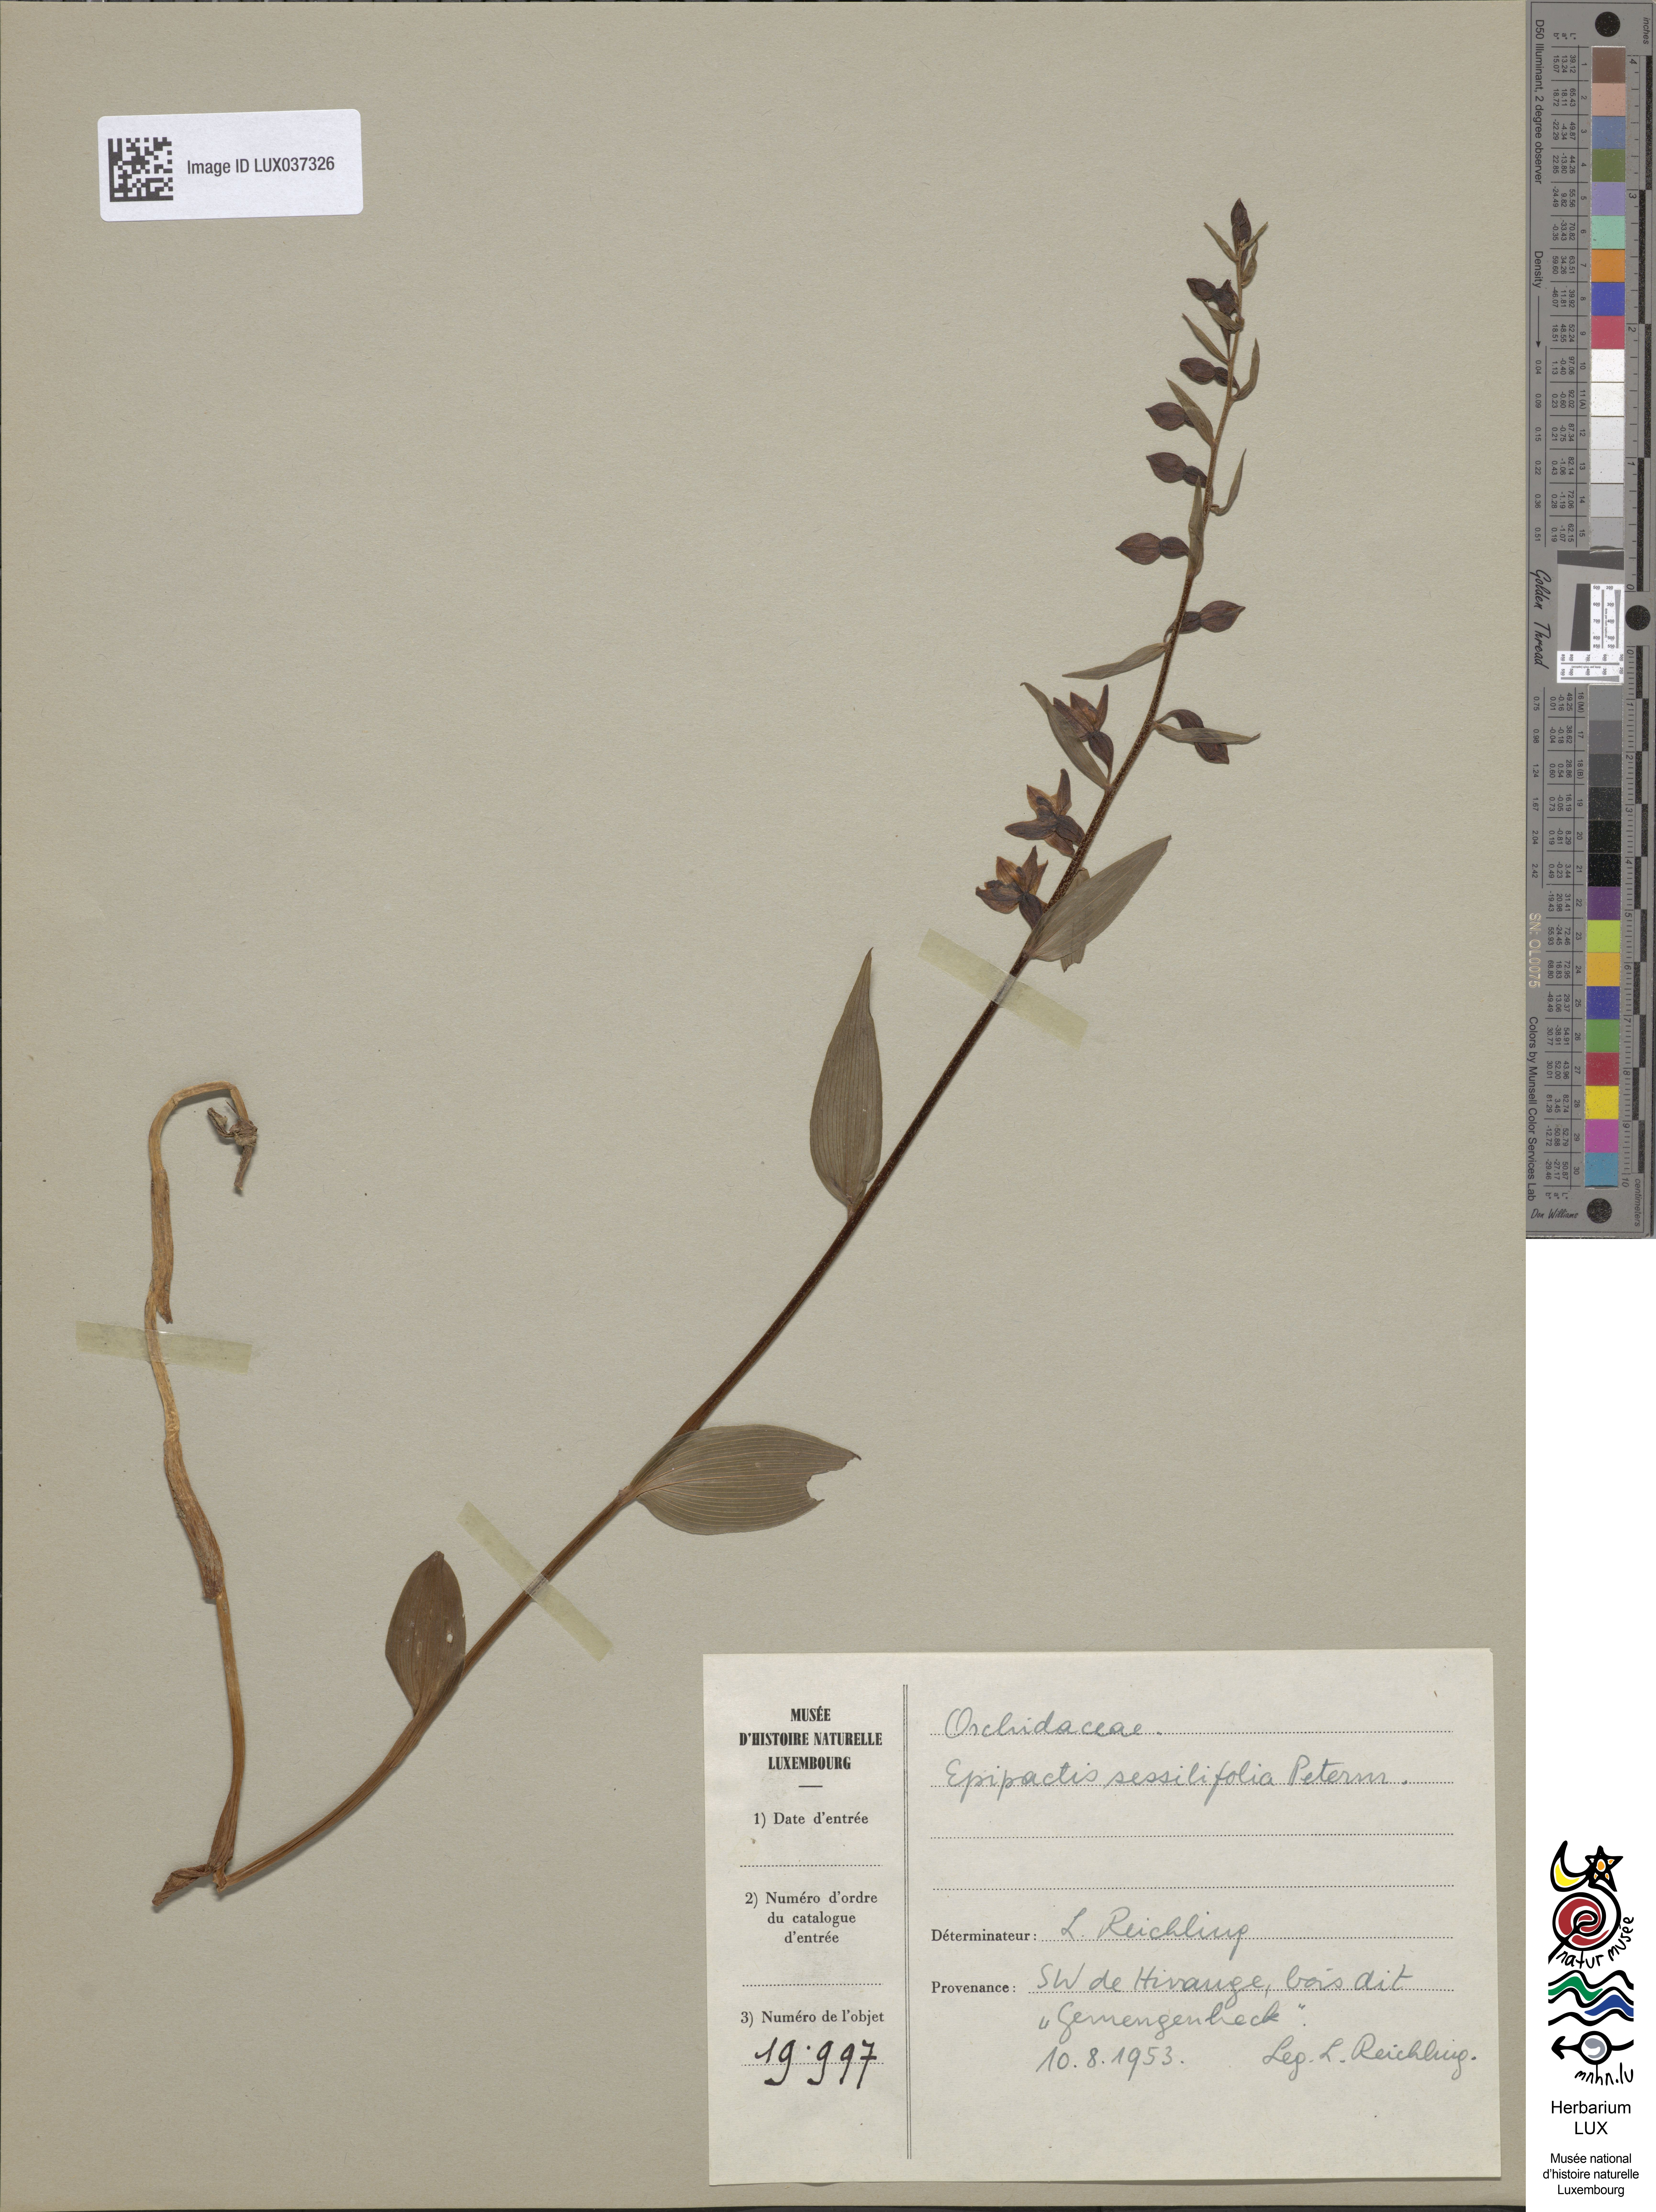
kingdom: Plantae
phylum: Tracheophyta
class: Liliopsida
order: Asparagales
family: Orchidaceae
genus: Epipactis
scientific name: Epipactis purpurata
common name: Violet helleborine
